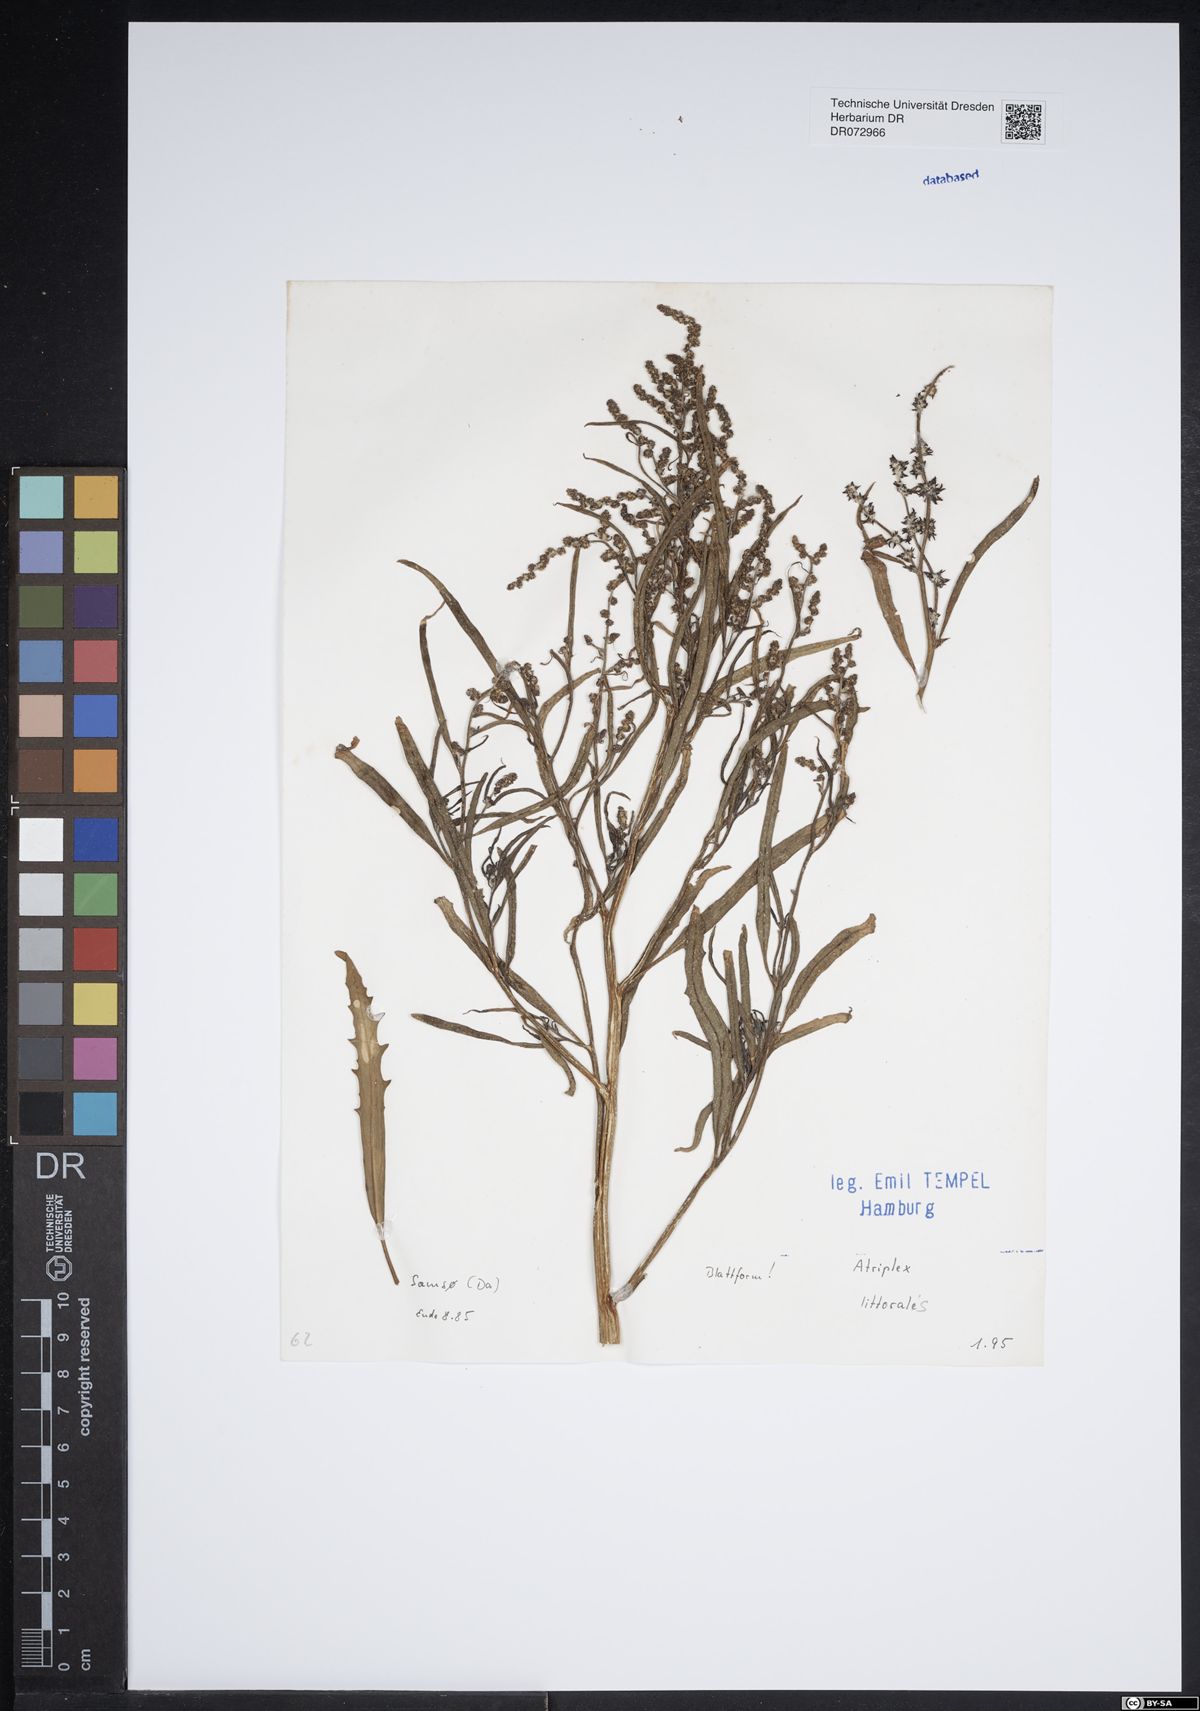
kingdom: Plantae
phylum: Tracheophyta
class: Magnoliopsida
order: Caryophyllales
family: Amaranthaceae
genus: Atriplex
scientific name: Atriplex littoralis
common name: Grass-leaved orache
